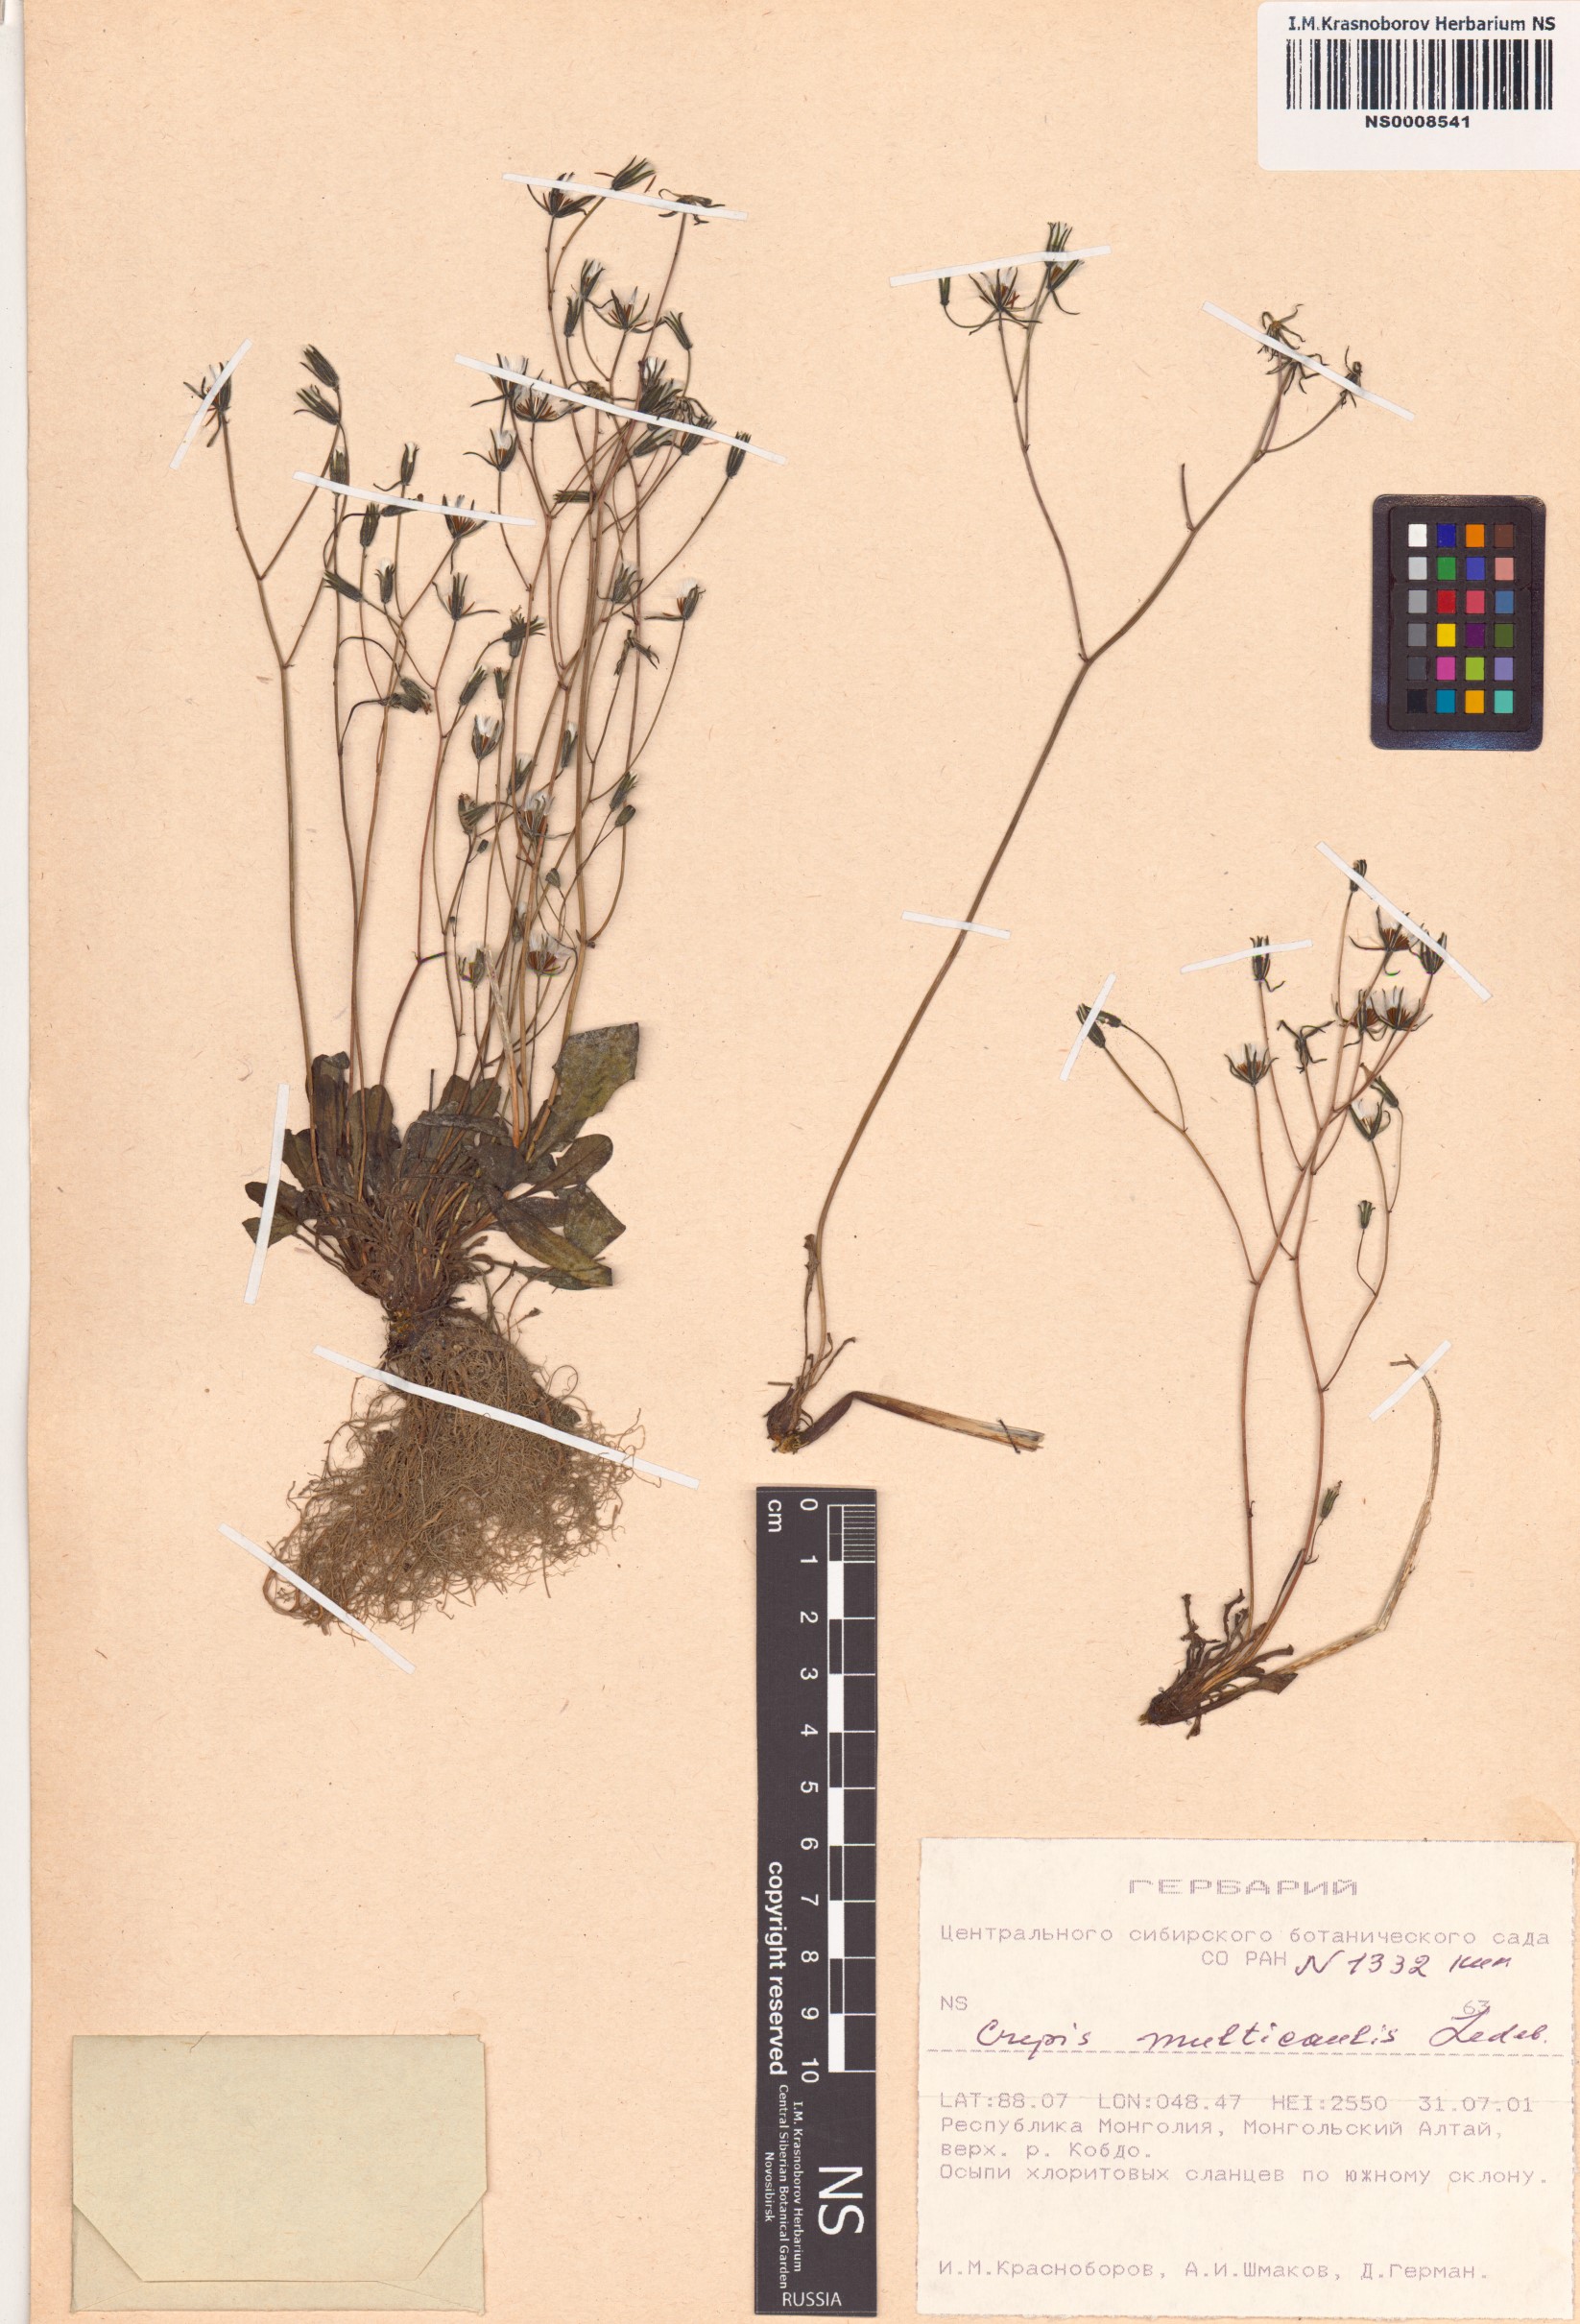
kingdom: Plantae
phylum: Tracheophyta
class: Magnoliopsida
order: Asterales
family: Asteraceae
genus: Crepis
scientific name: Crepis multicaulis
